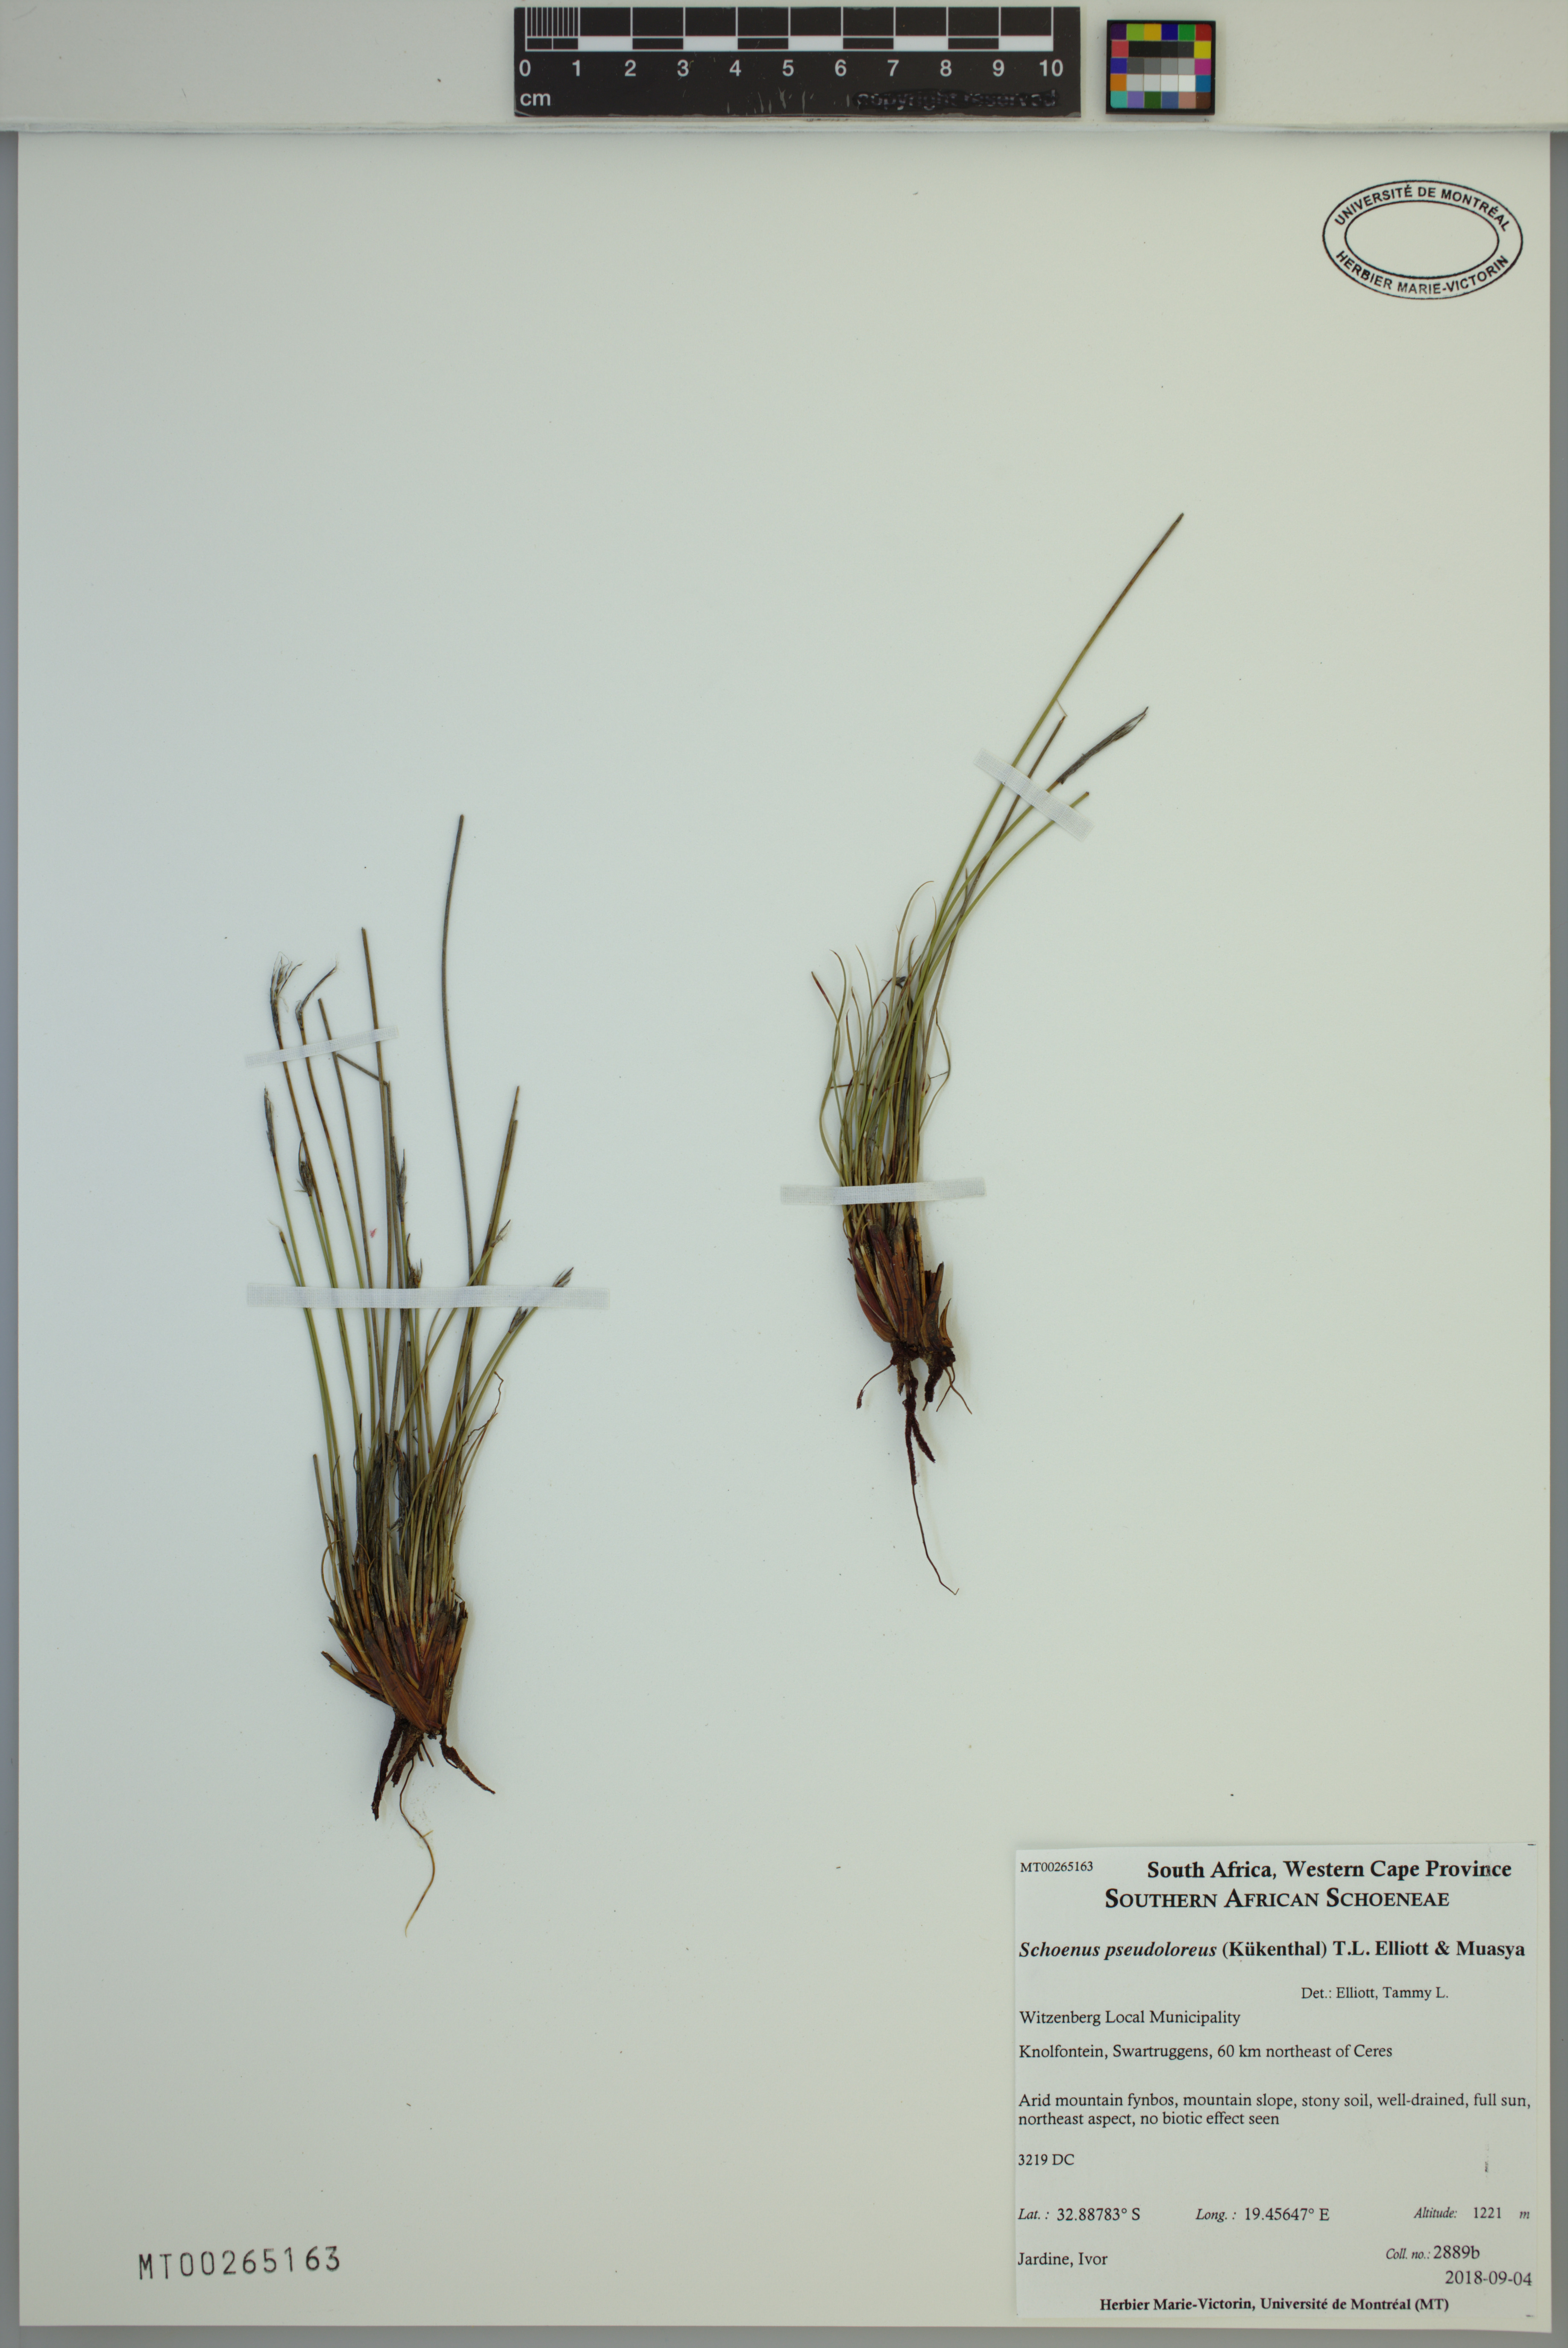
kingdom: Plantae
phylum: Tracheophyta
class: Liliopsida
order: Poales
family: Cyperaceae
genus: Schoenus
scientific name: Schoenus pseudoloreus
